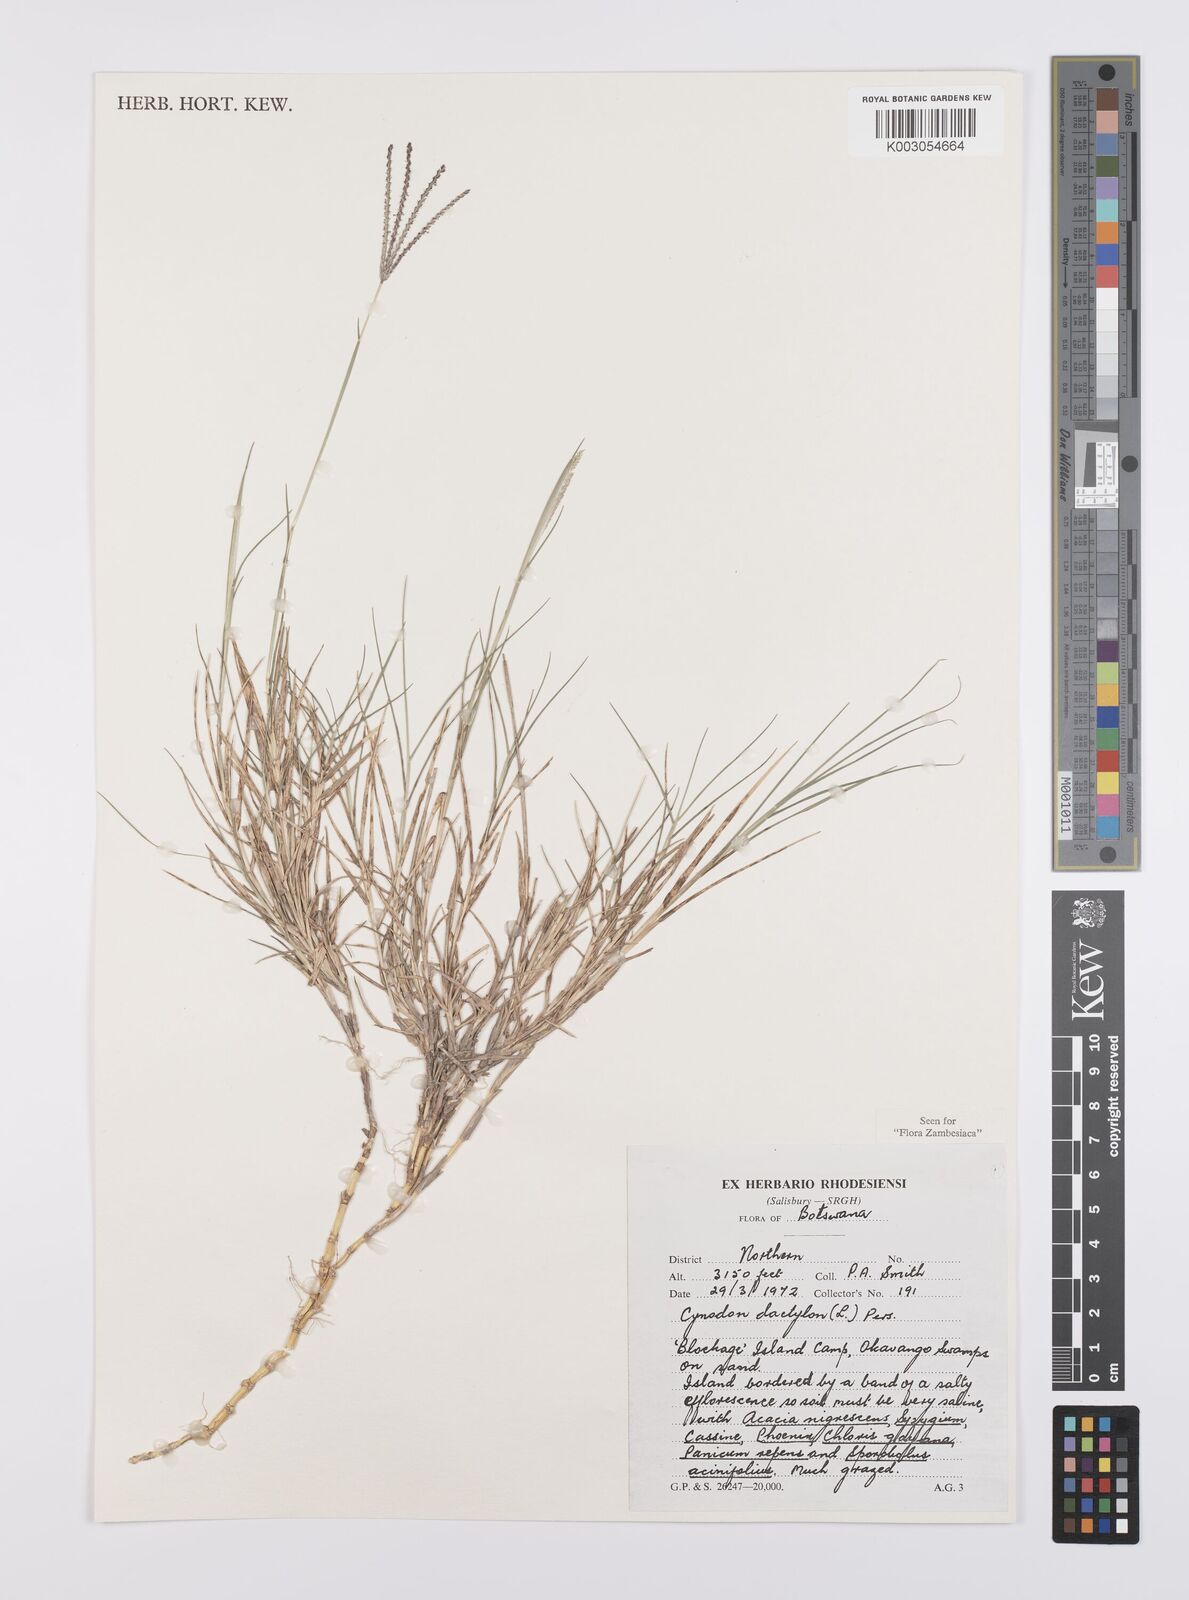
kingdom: Plantae
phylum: Tracheophyta
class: Liliopsida
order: Poales
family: Poaceae
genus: Cynodon
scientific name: Cynodon dactylon
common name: Bermuda grass
